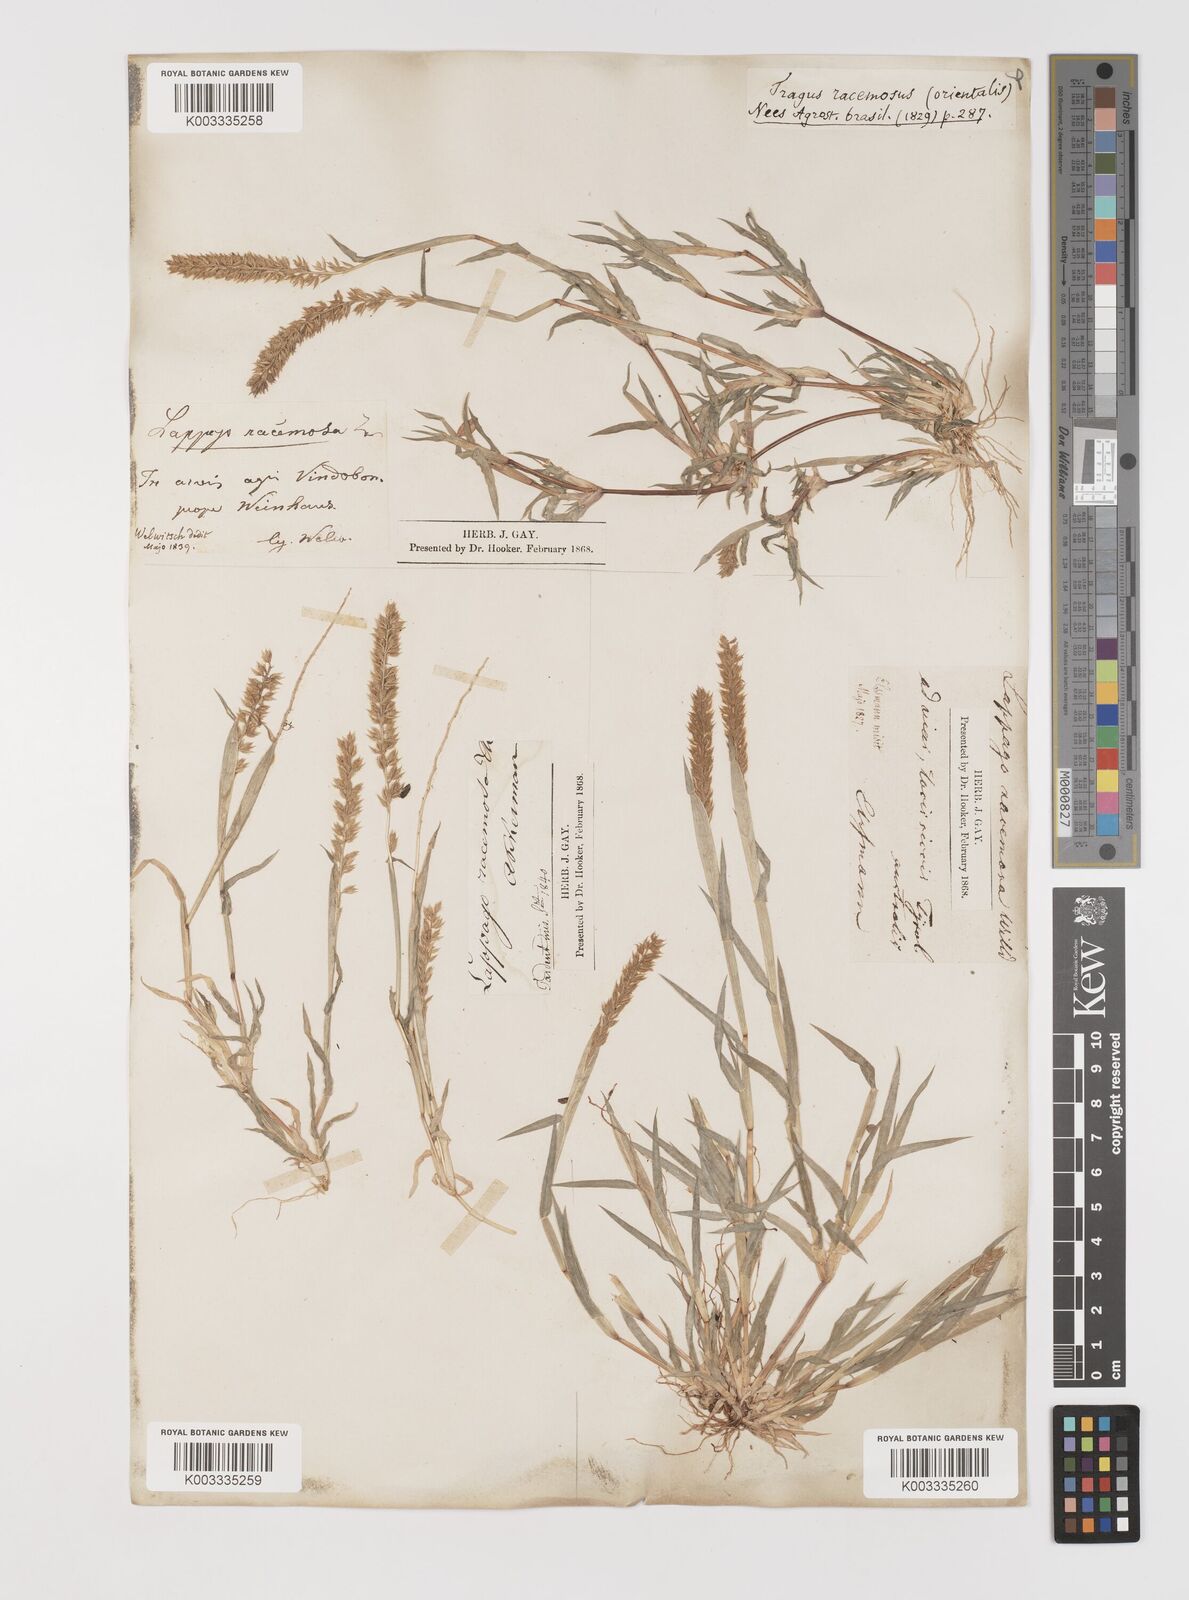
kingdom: Plantae
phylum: Tracheophyta
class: Liliopsida
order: Poales
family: Poaceae
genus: Tragus
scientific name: Tragus racemosus
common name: European bur-grass
